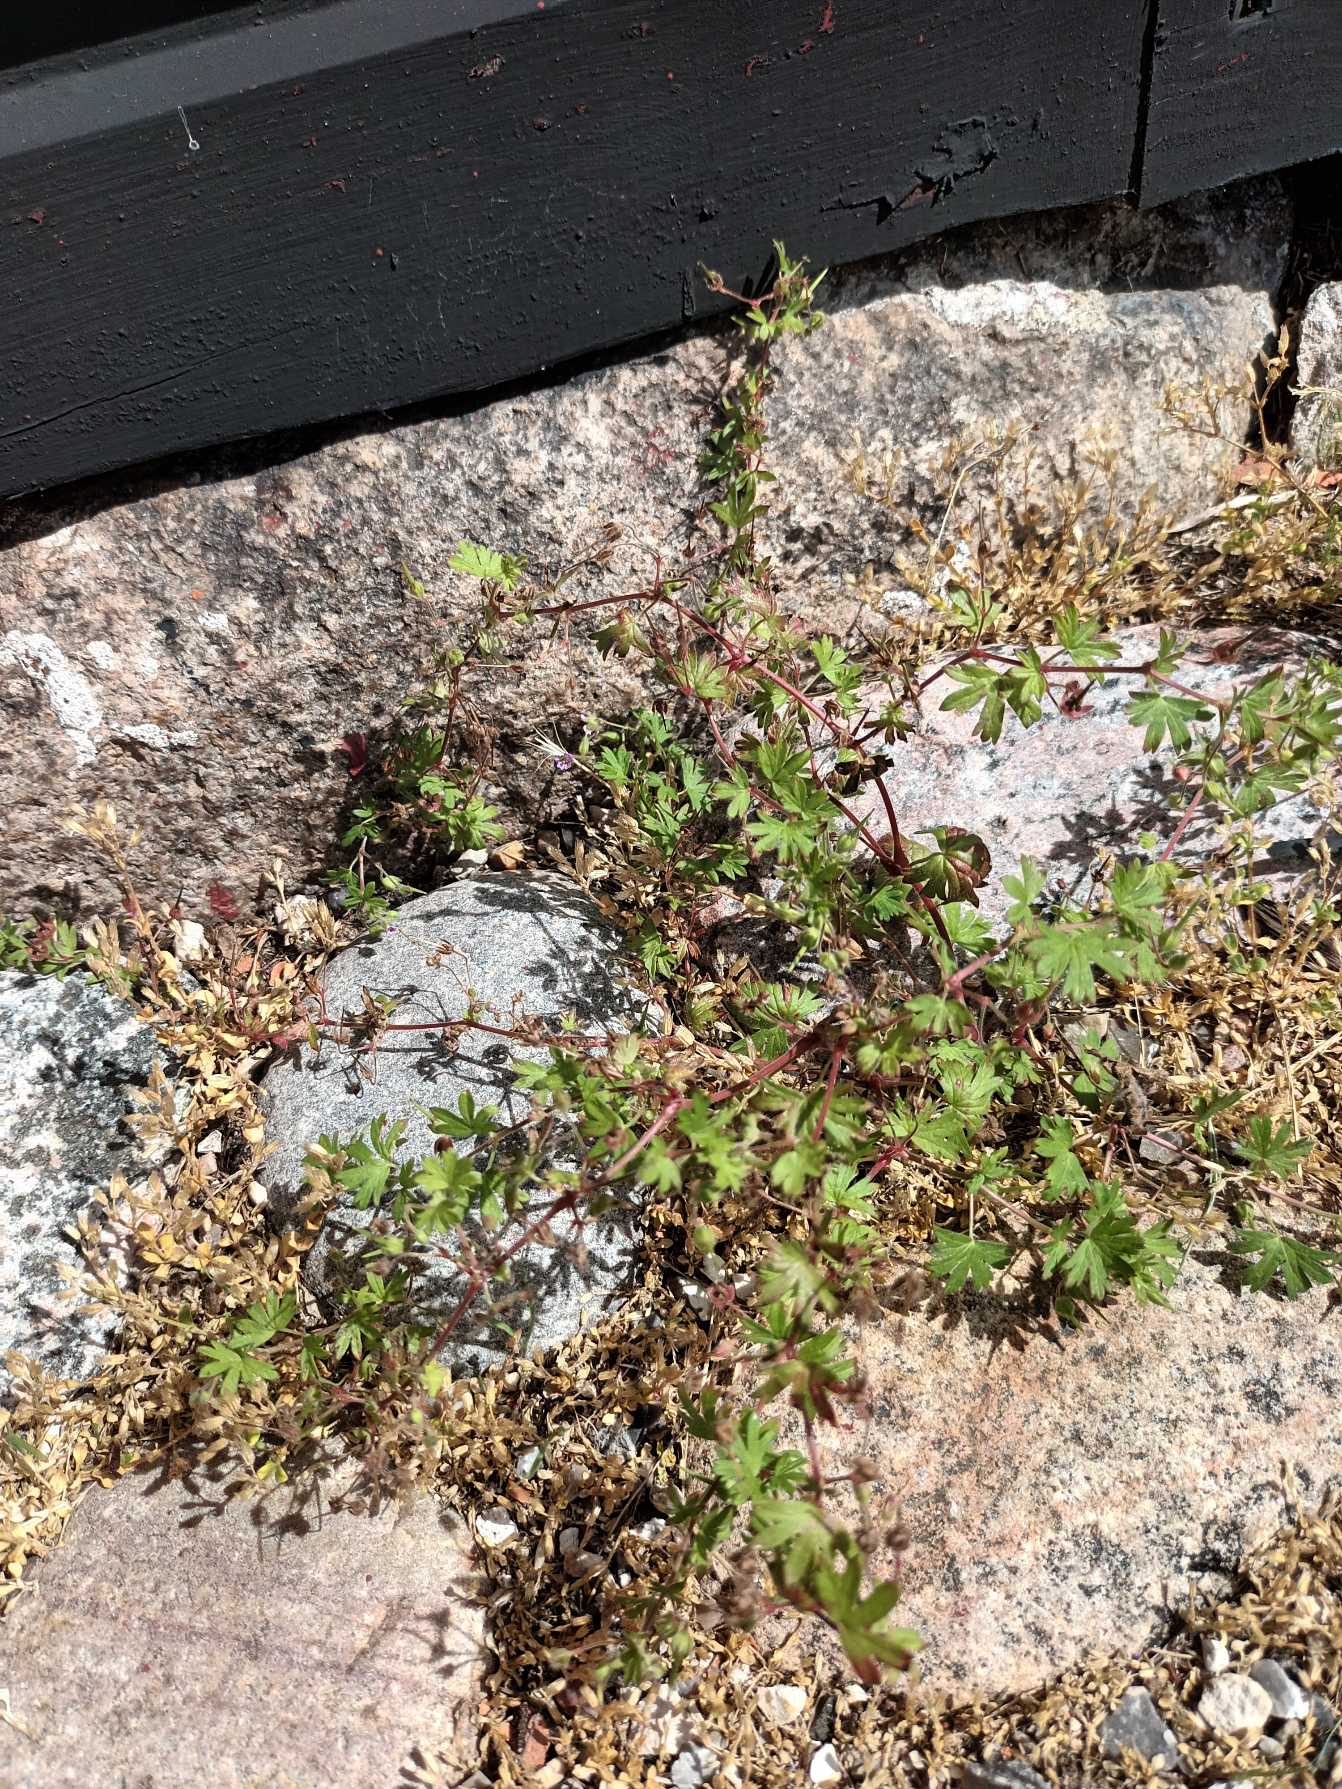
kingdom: Plantae
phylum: Tracheophyta
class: Magnoliopsida
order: Geraniales
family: Geraniaceae
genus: Geranium
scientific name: Geranium pusillum
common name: Liden storkenæb
